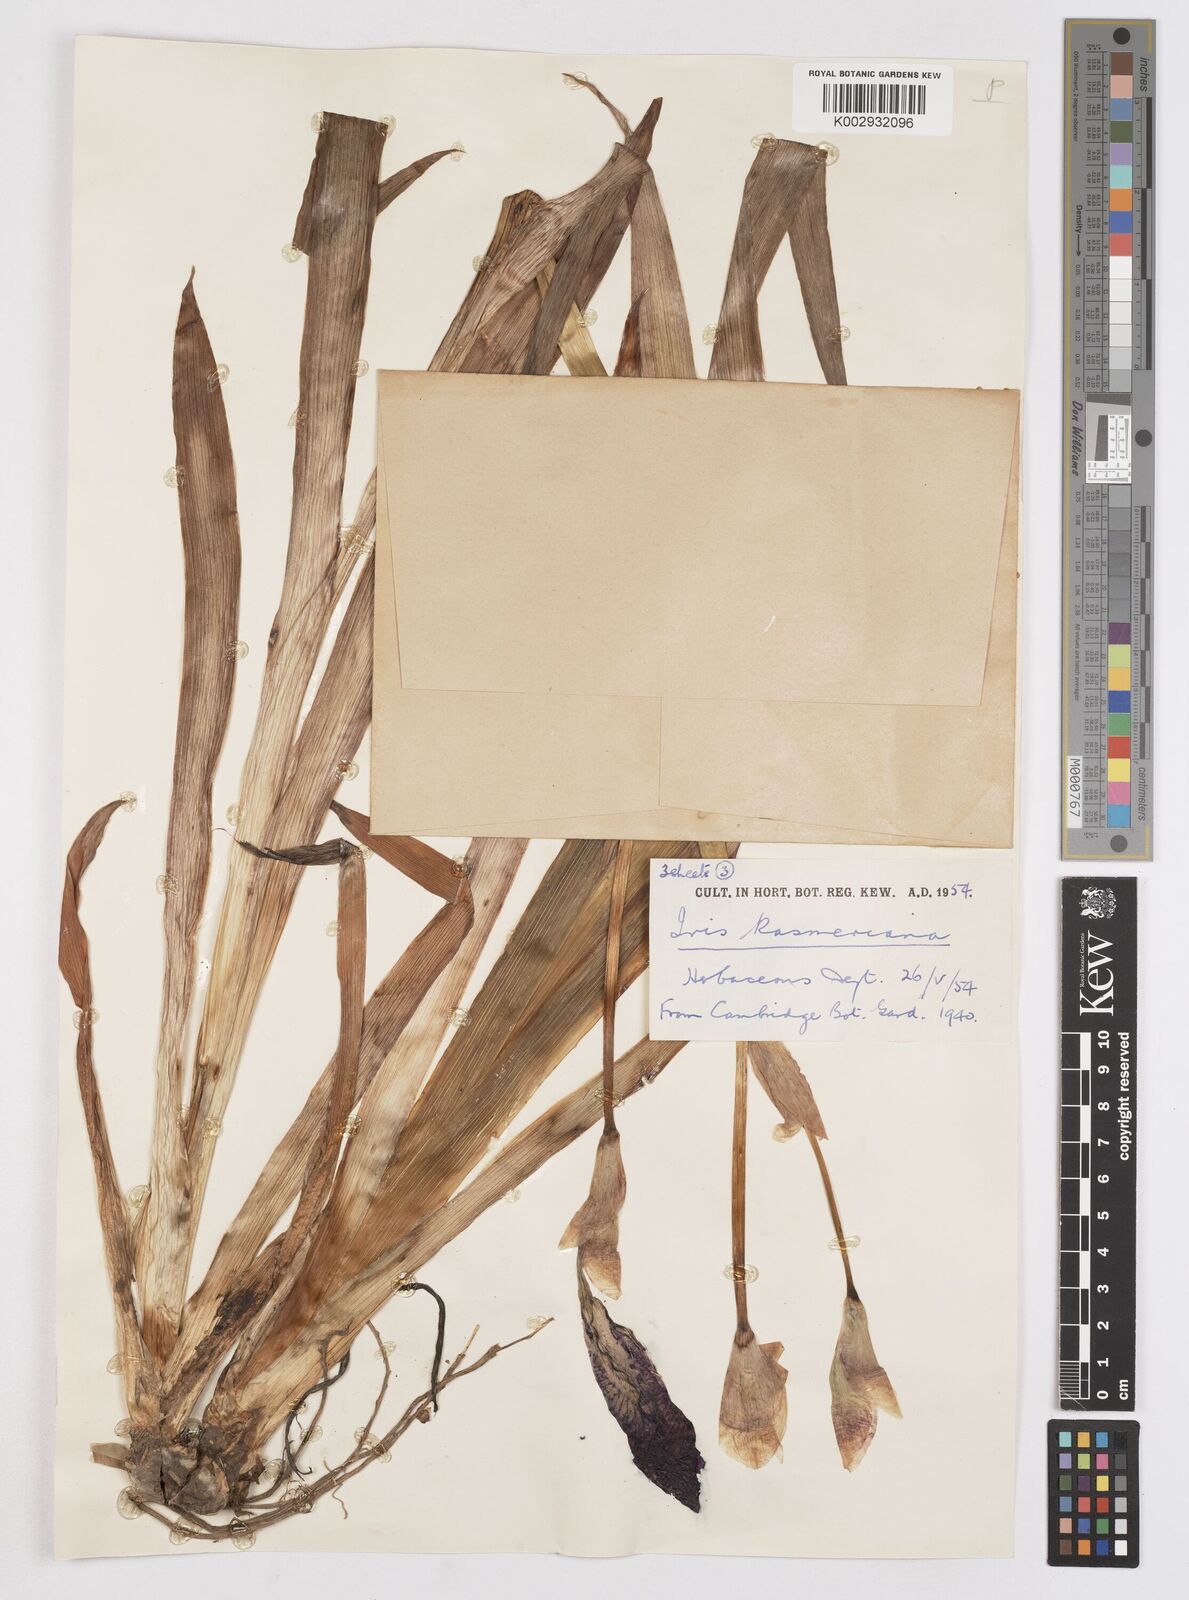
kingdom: Plantae
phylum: Tracheophyta
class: Liliopsida
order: Asparagales
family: Iridaceae
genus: Iris
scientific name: Iris kashmiriana
